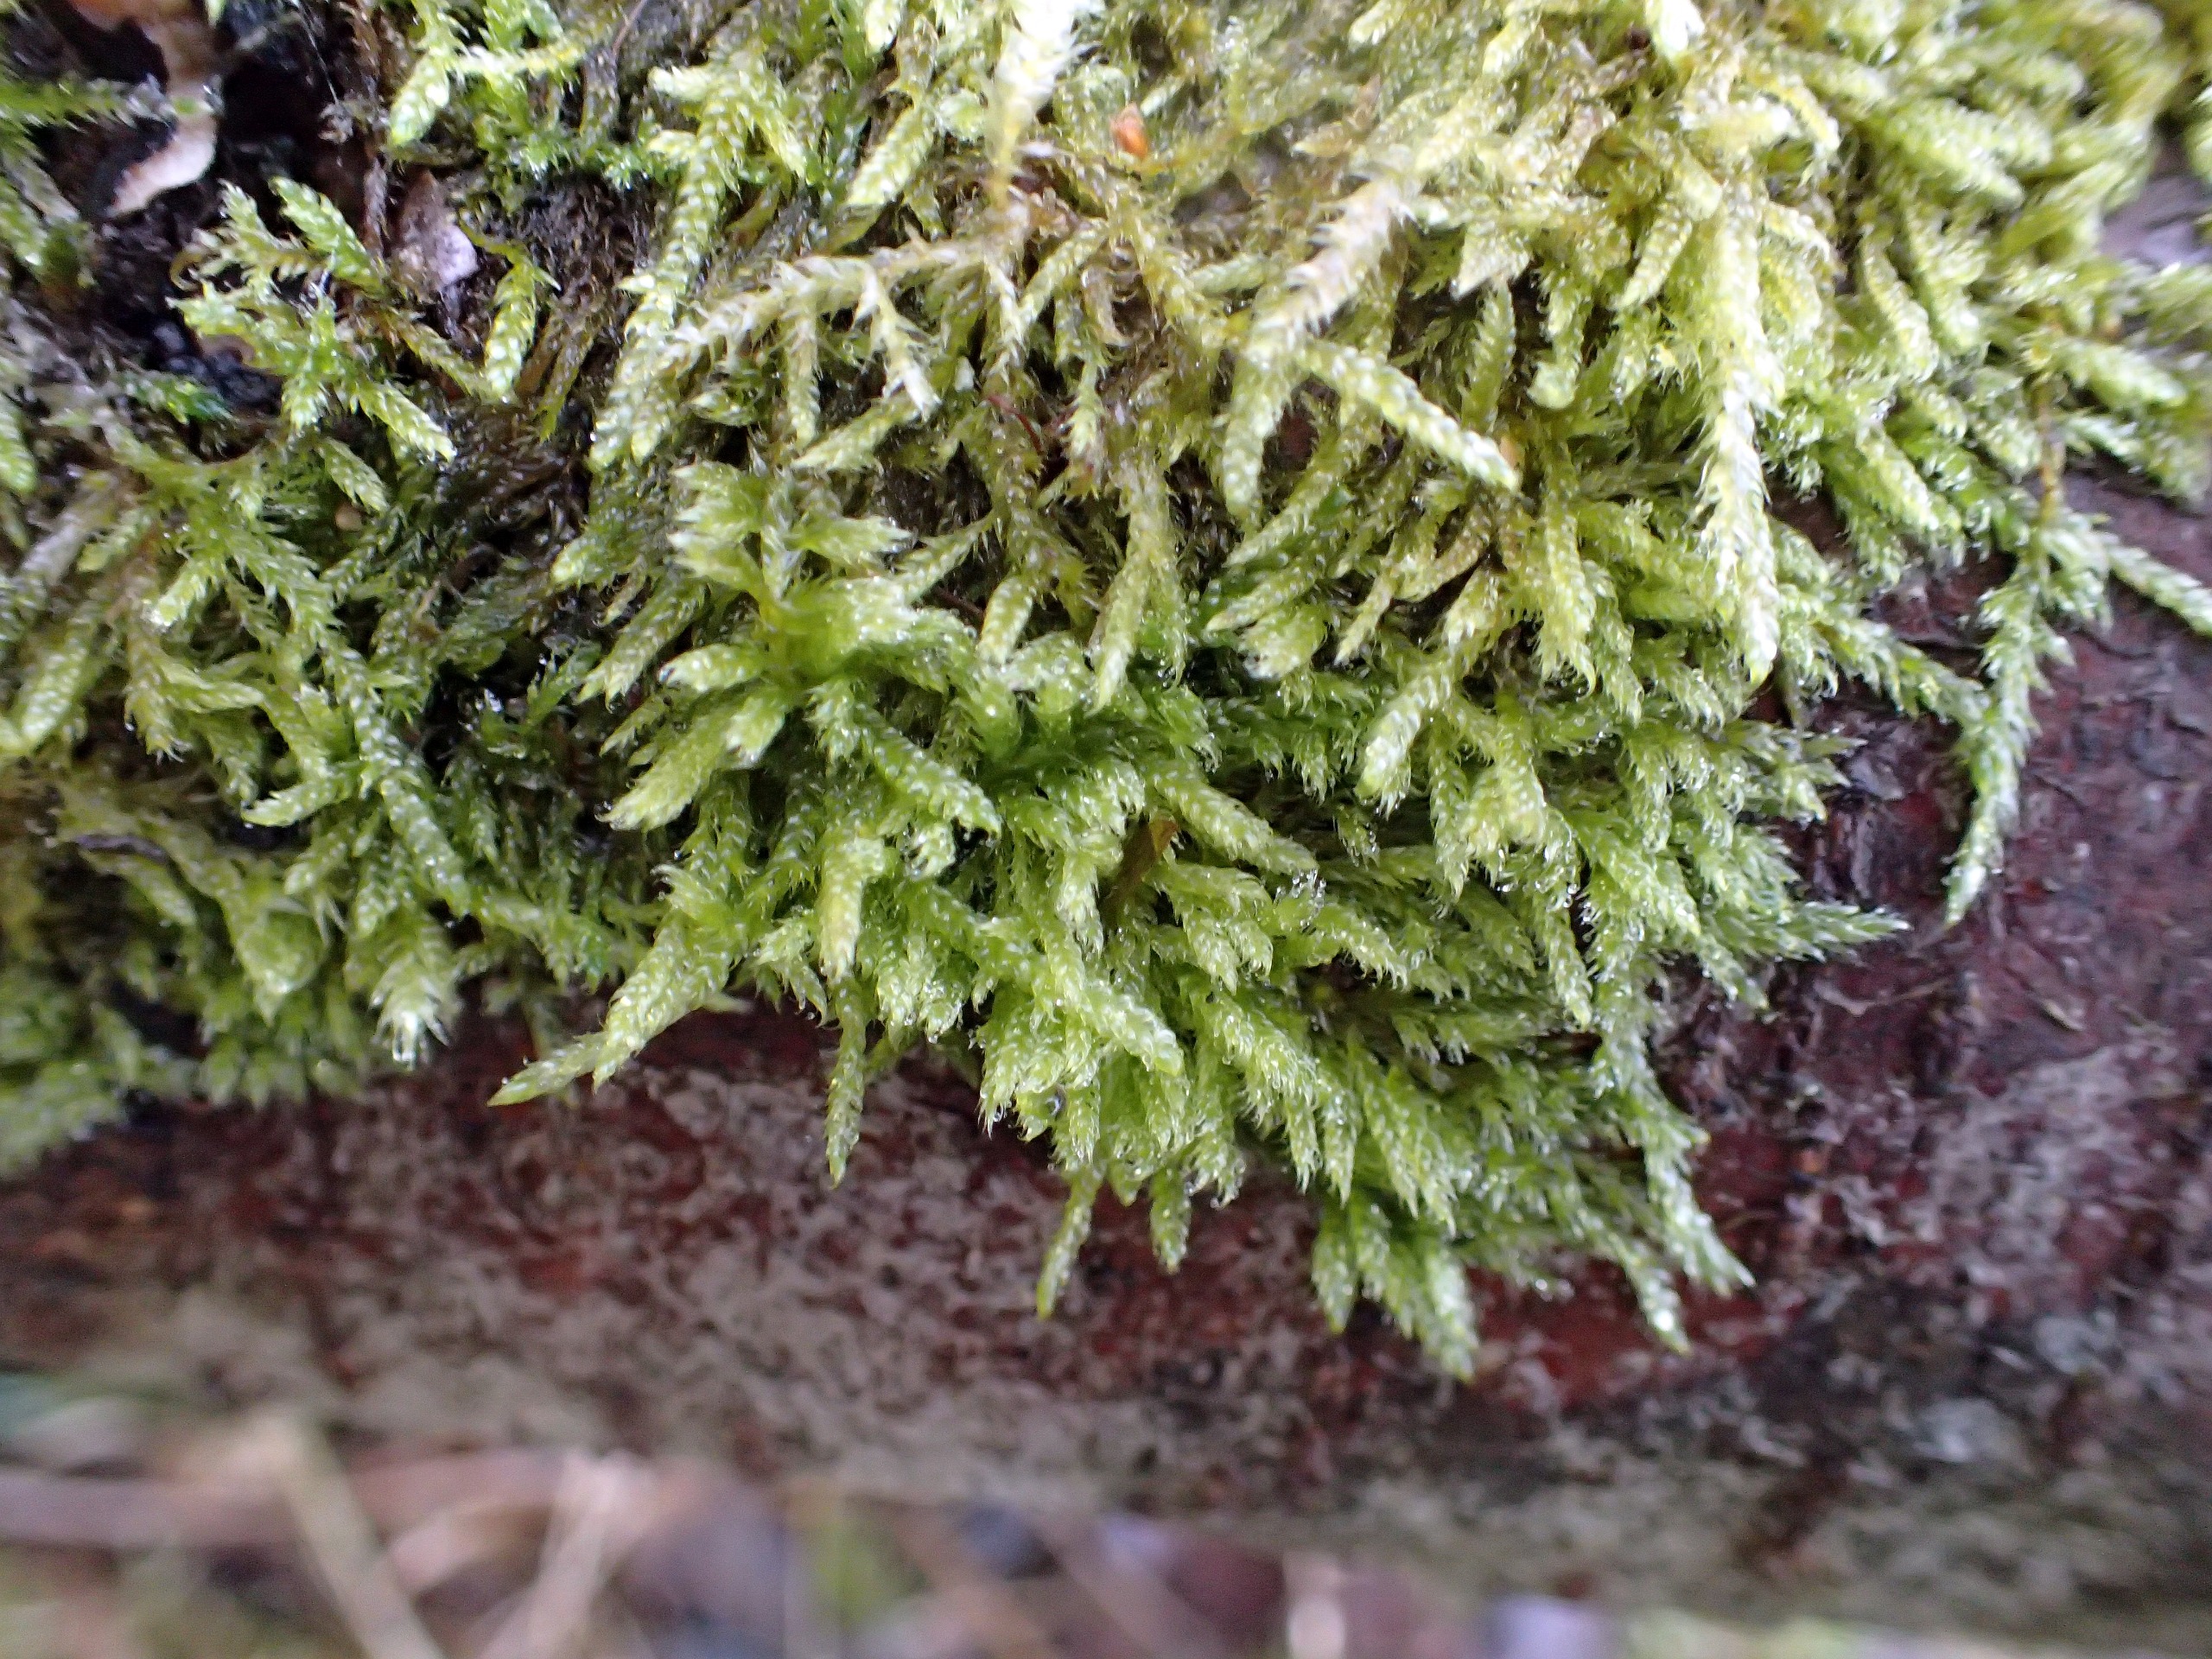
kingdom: Plantae
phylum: Bryophyta
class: Bryopsida
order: Hypnales
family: Hypnaceae
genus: Hypnum
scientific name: Hypnum cupressiforme
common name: Almindelig cypresmos
